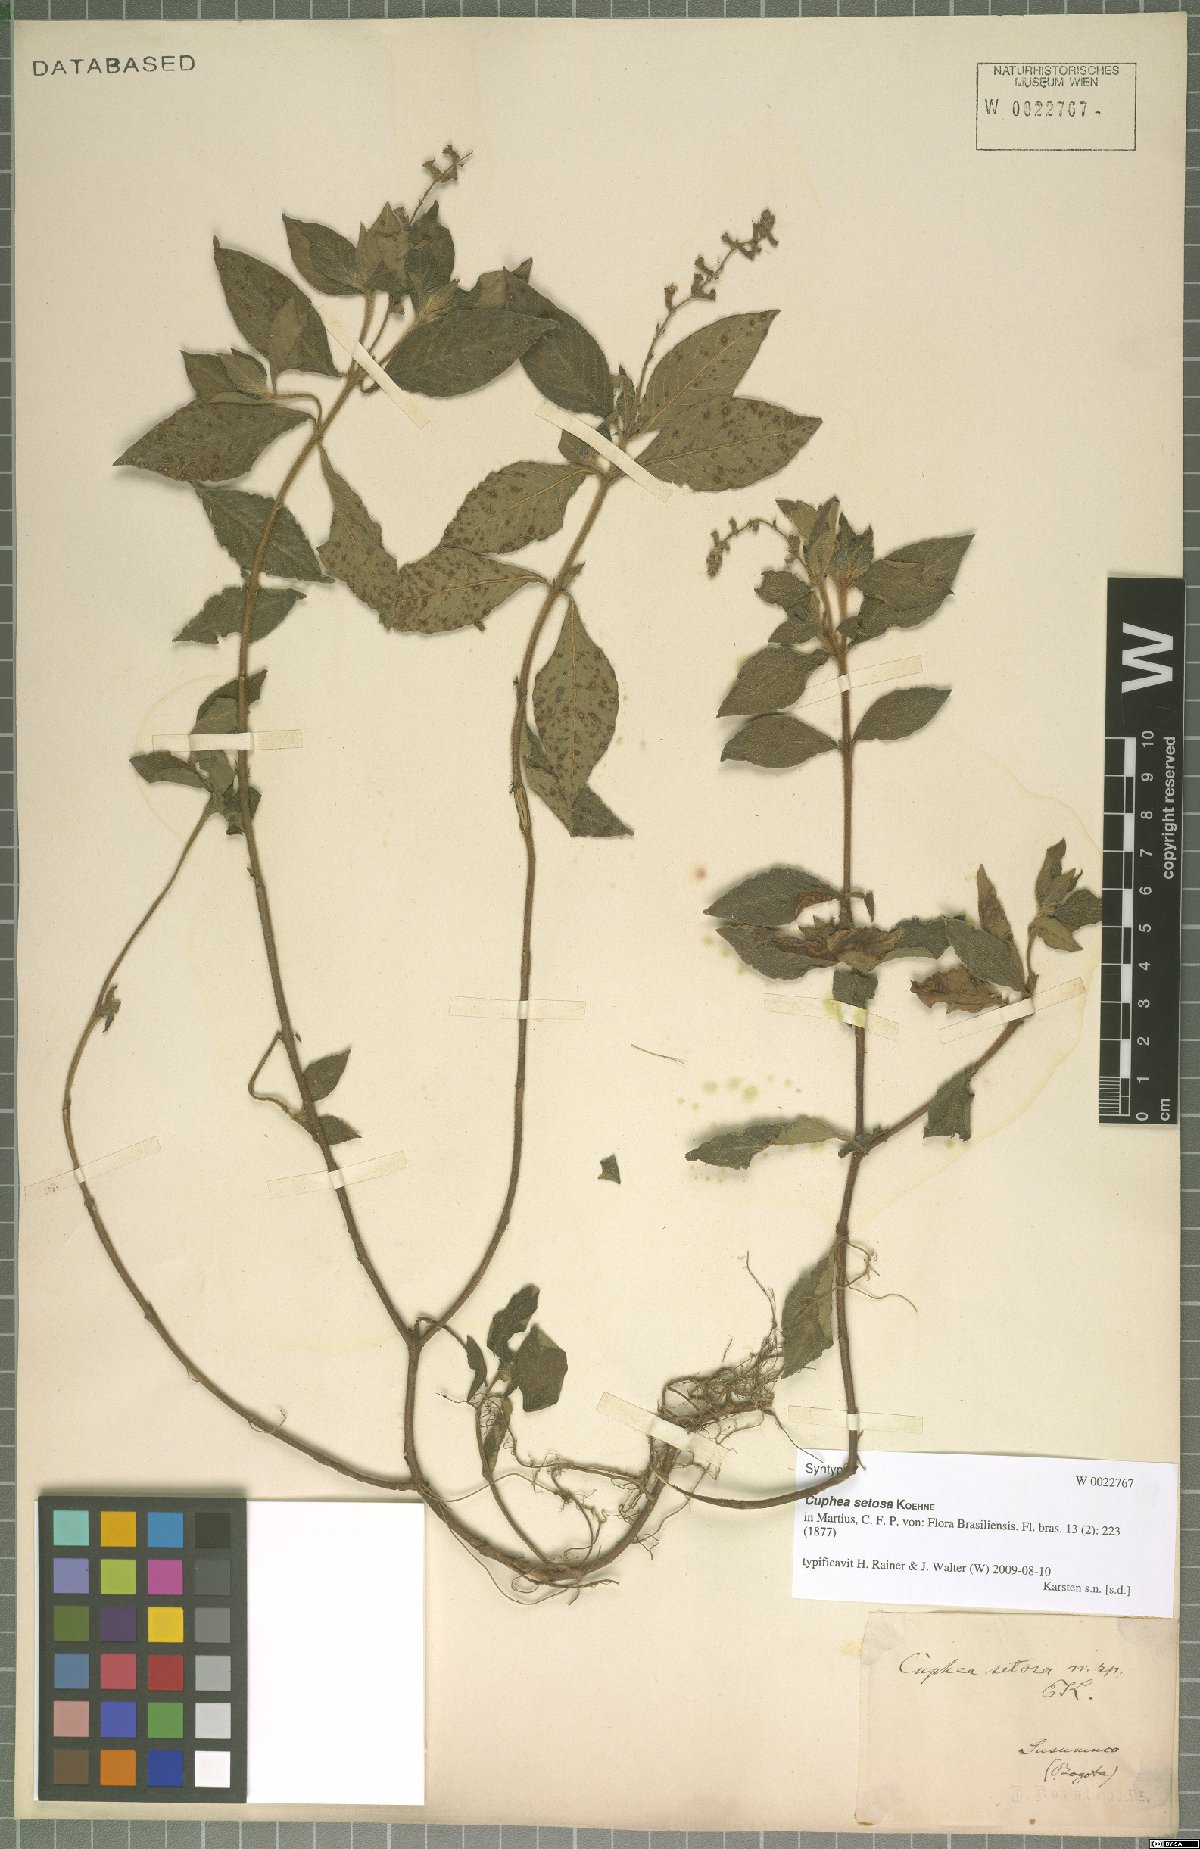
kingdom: Plantae
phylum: Tracheophyta
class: Magnoliopsida
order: Myrtales
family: Lythraceae
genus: Cuphea
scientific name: Cuphea setosa
